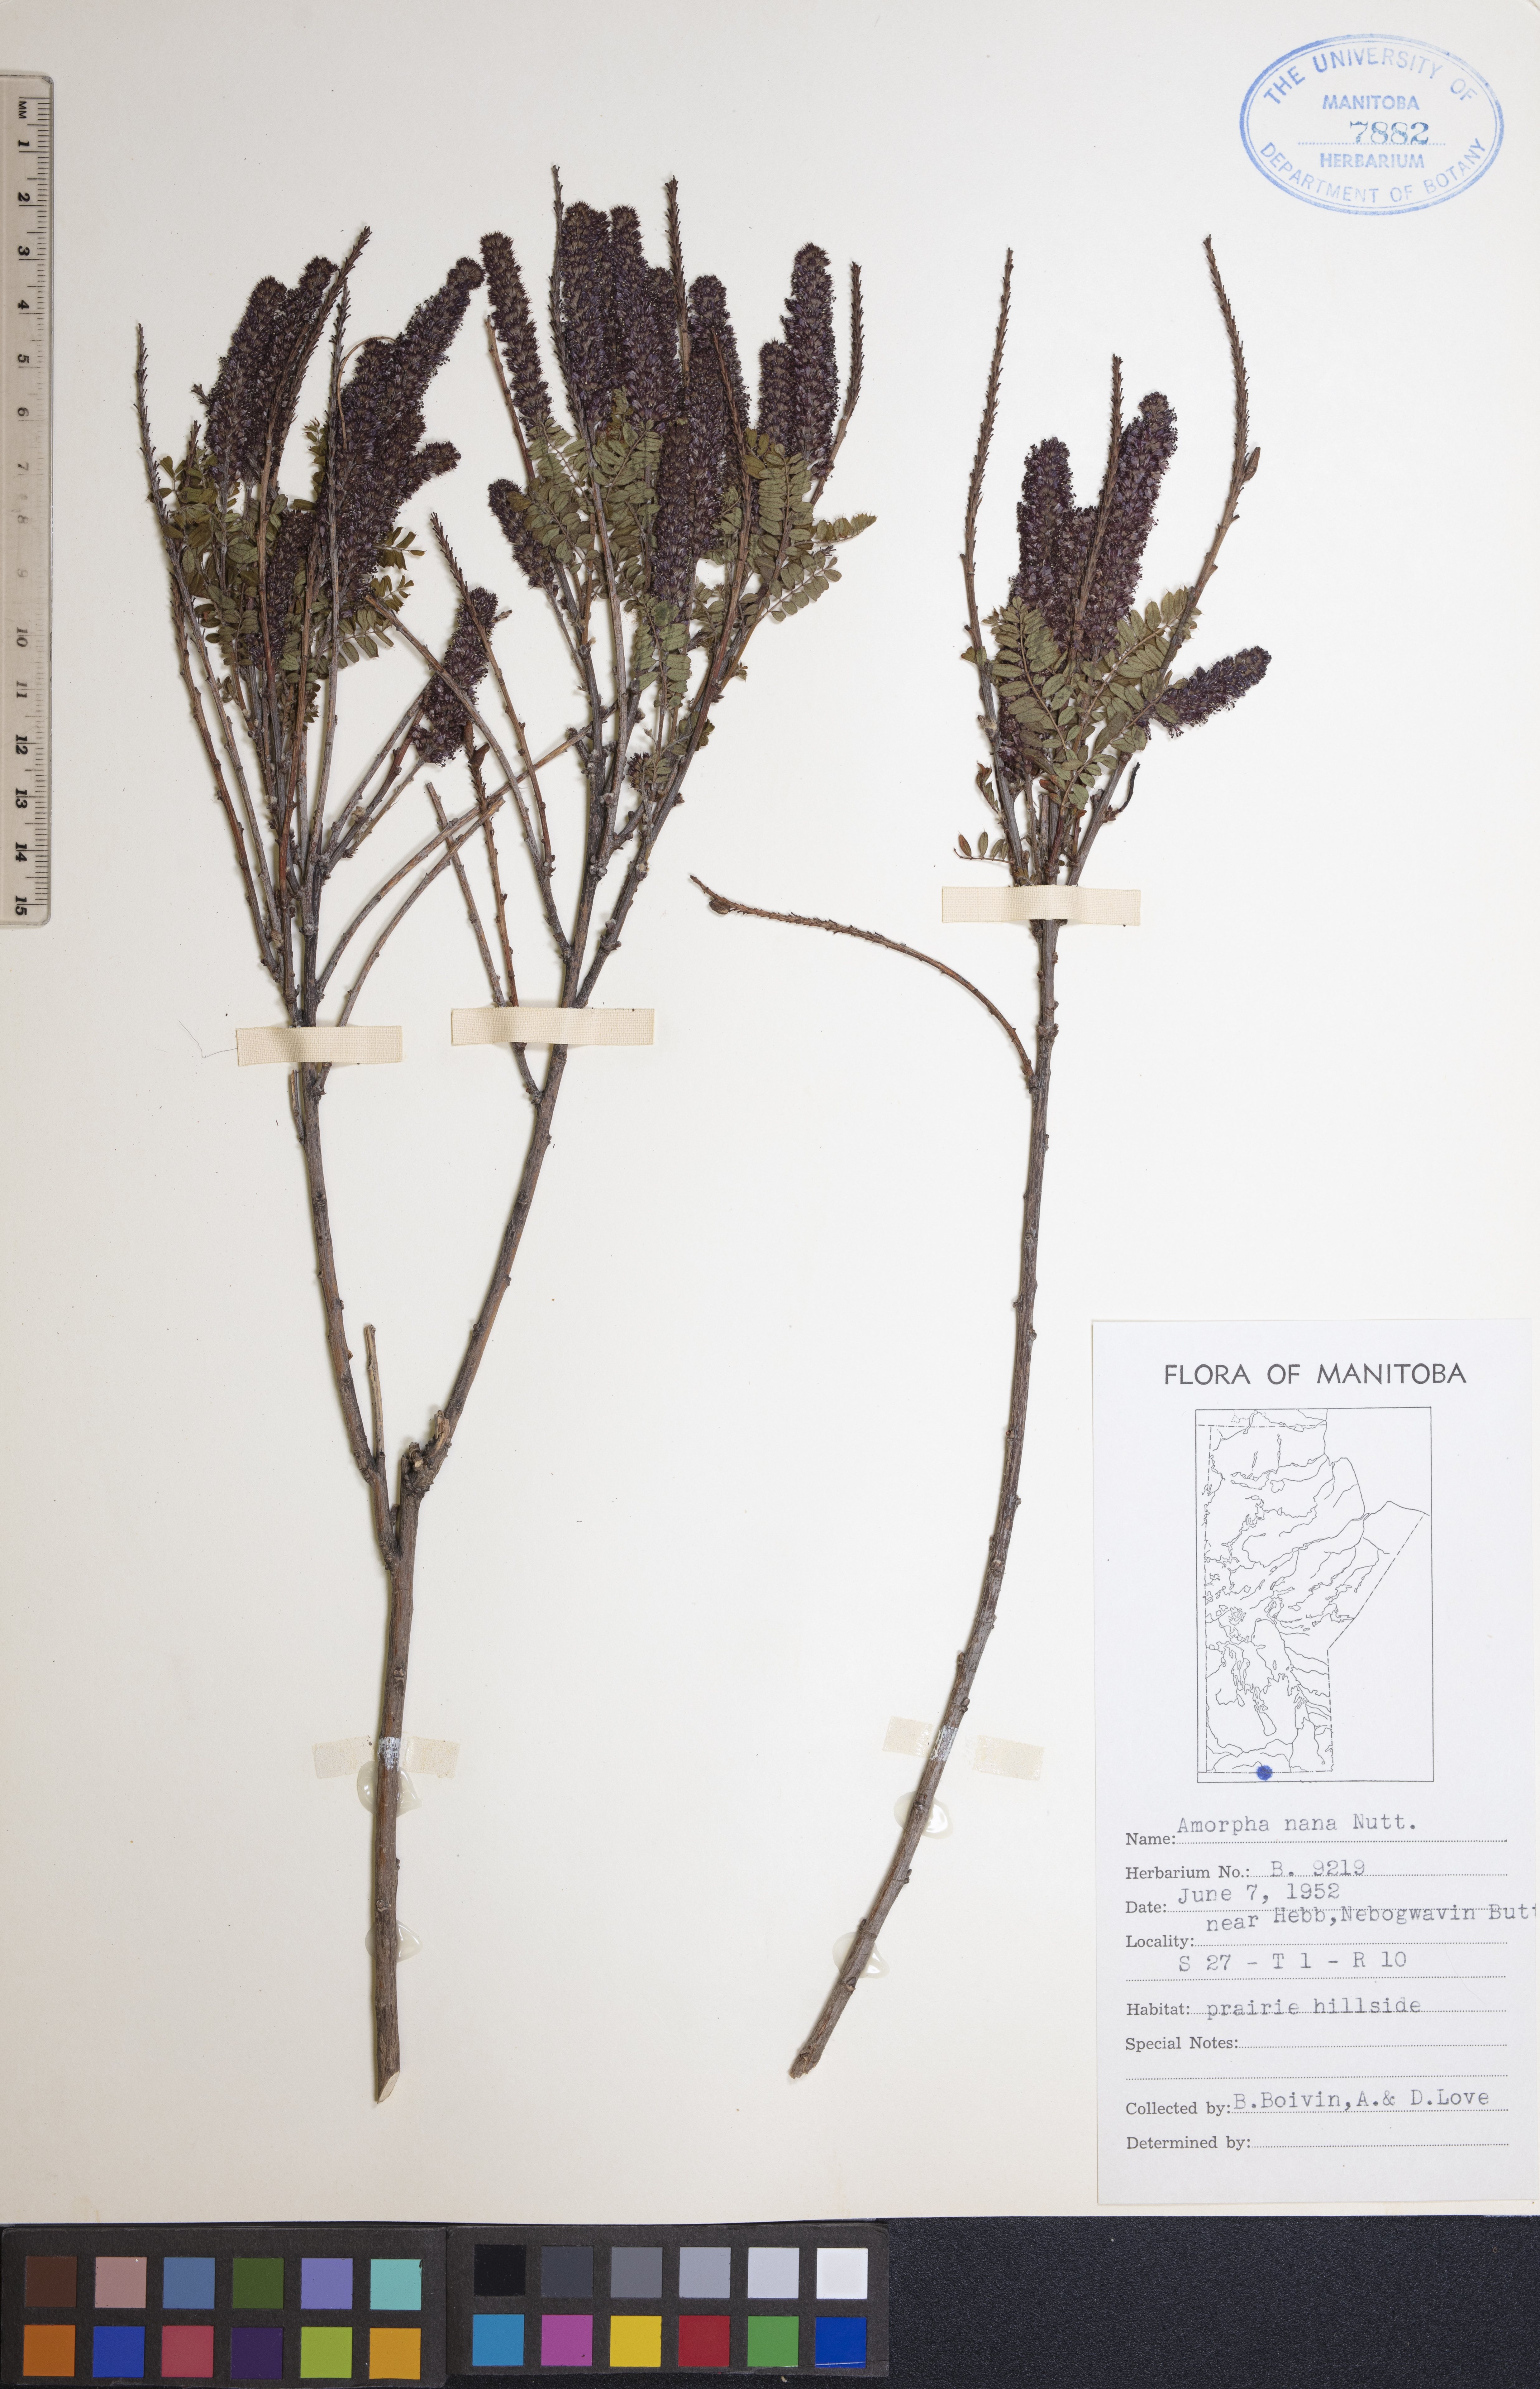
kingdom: Plantae
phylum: Tracheophyta
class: Magnoliopsida
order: Fabales
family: Fabaceae
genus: Amorpha
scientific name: Amorpha nana
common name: Fragrant false indigo
